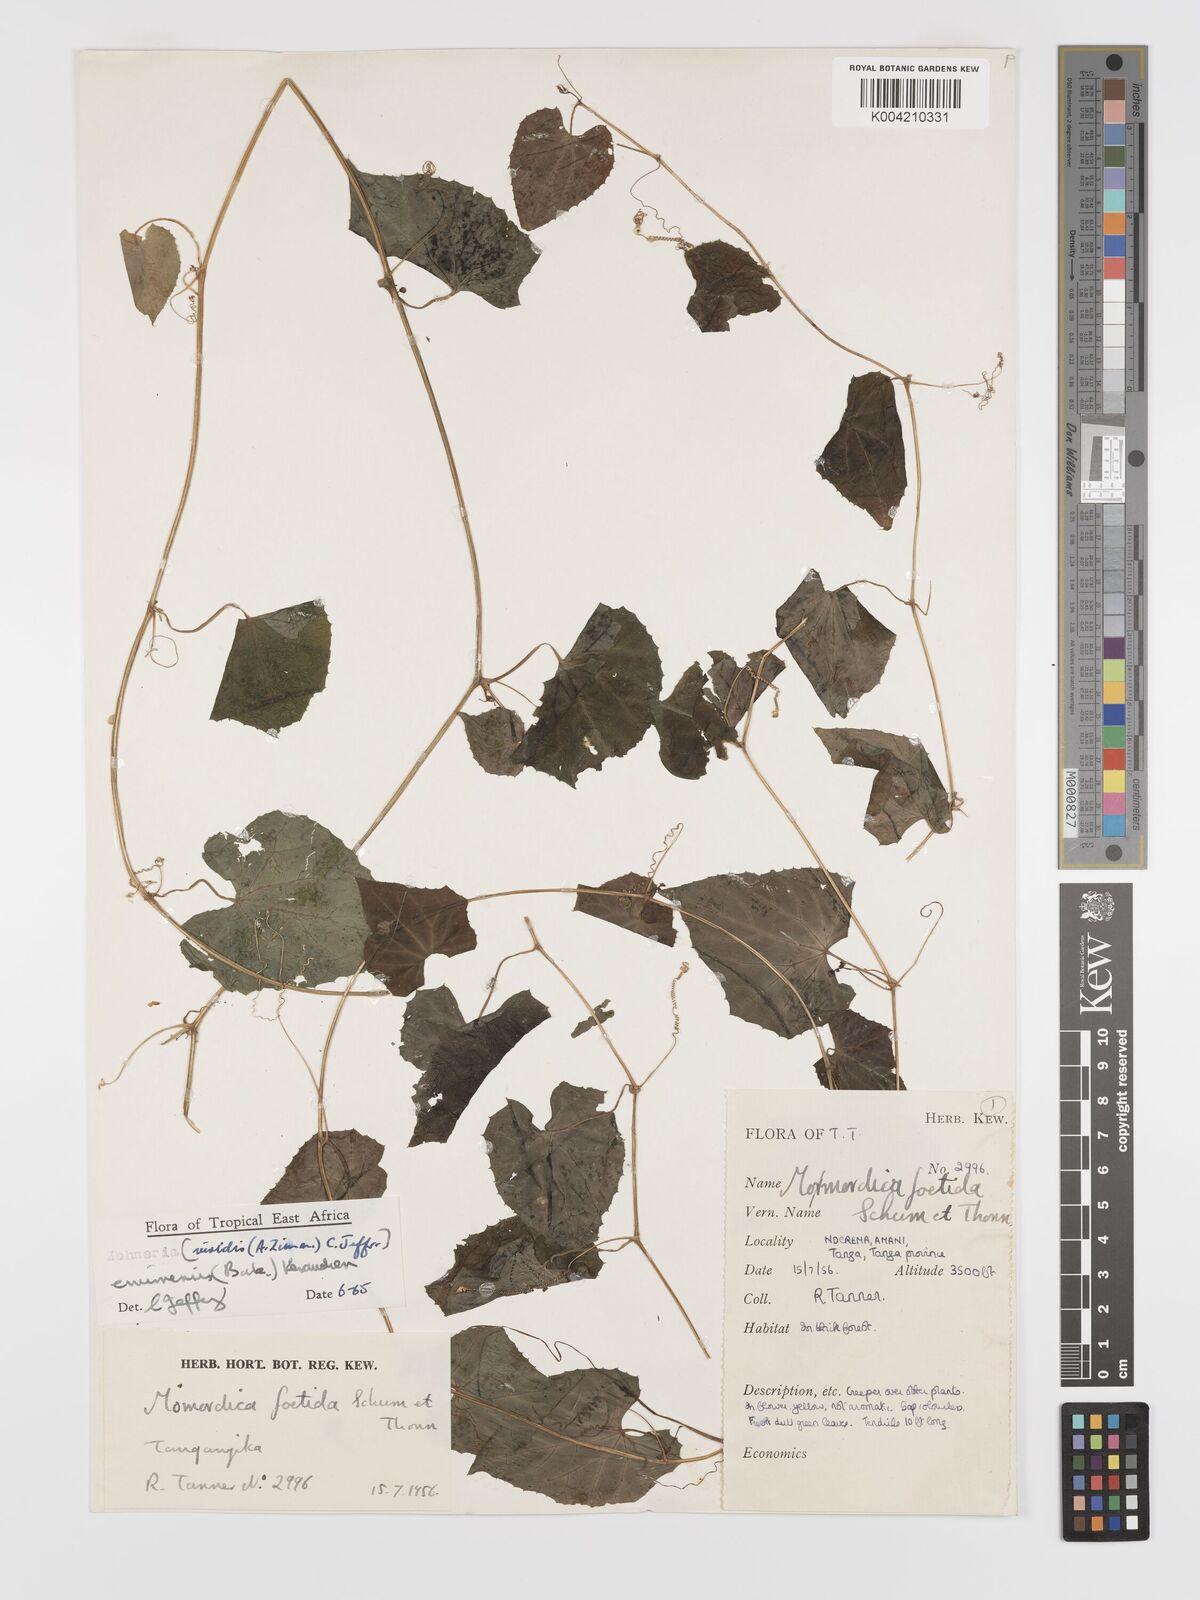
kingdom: Plantae
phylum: Tracheophyta
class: Magnoliopsida
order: Cucurbitales
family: Cucurbitaceae
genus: Zehneria
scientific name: Zehneria emirnensis
